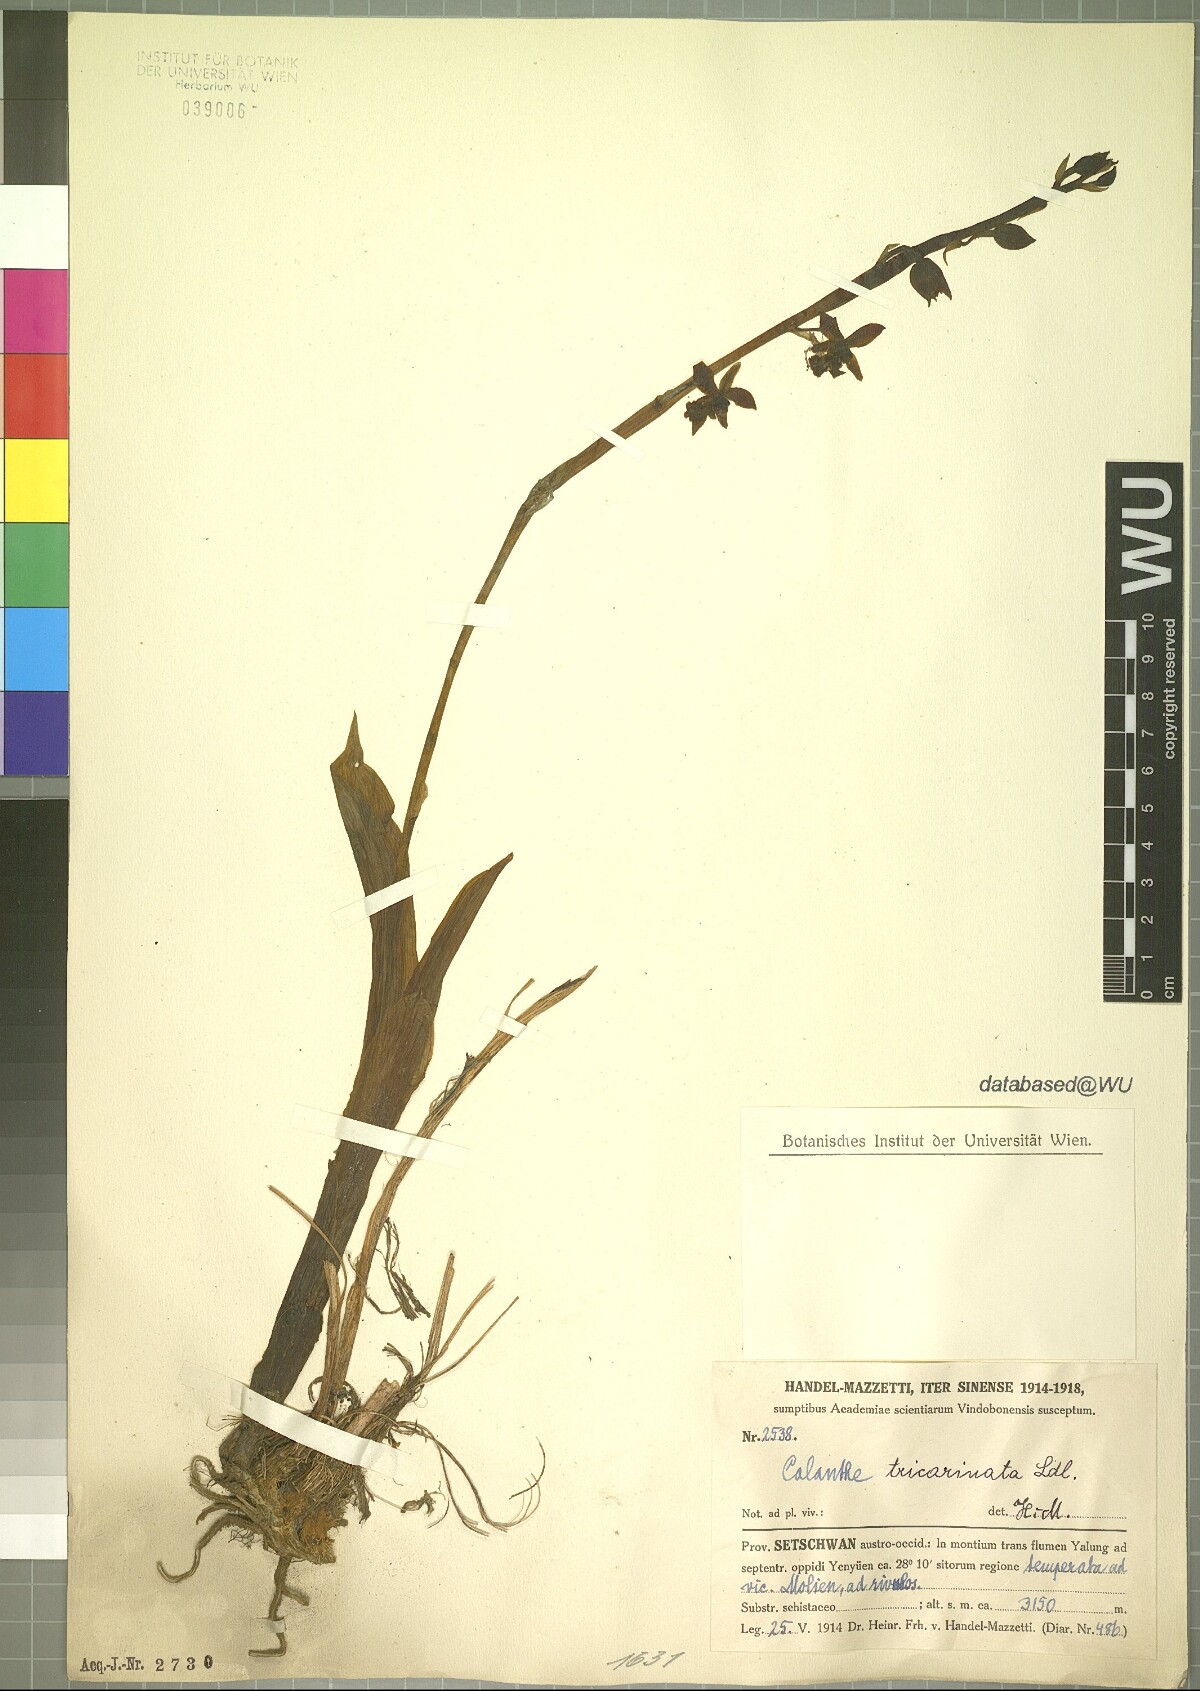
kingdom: Plantae
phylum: Tracheophyta
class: Liliopsida
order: Asparagales
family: Orchidaceae
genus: Calanthe
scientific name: Calanthe tricarinata
